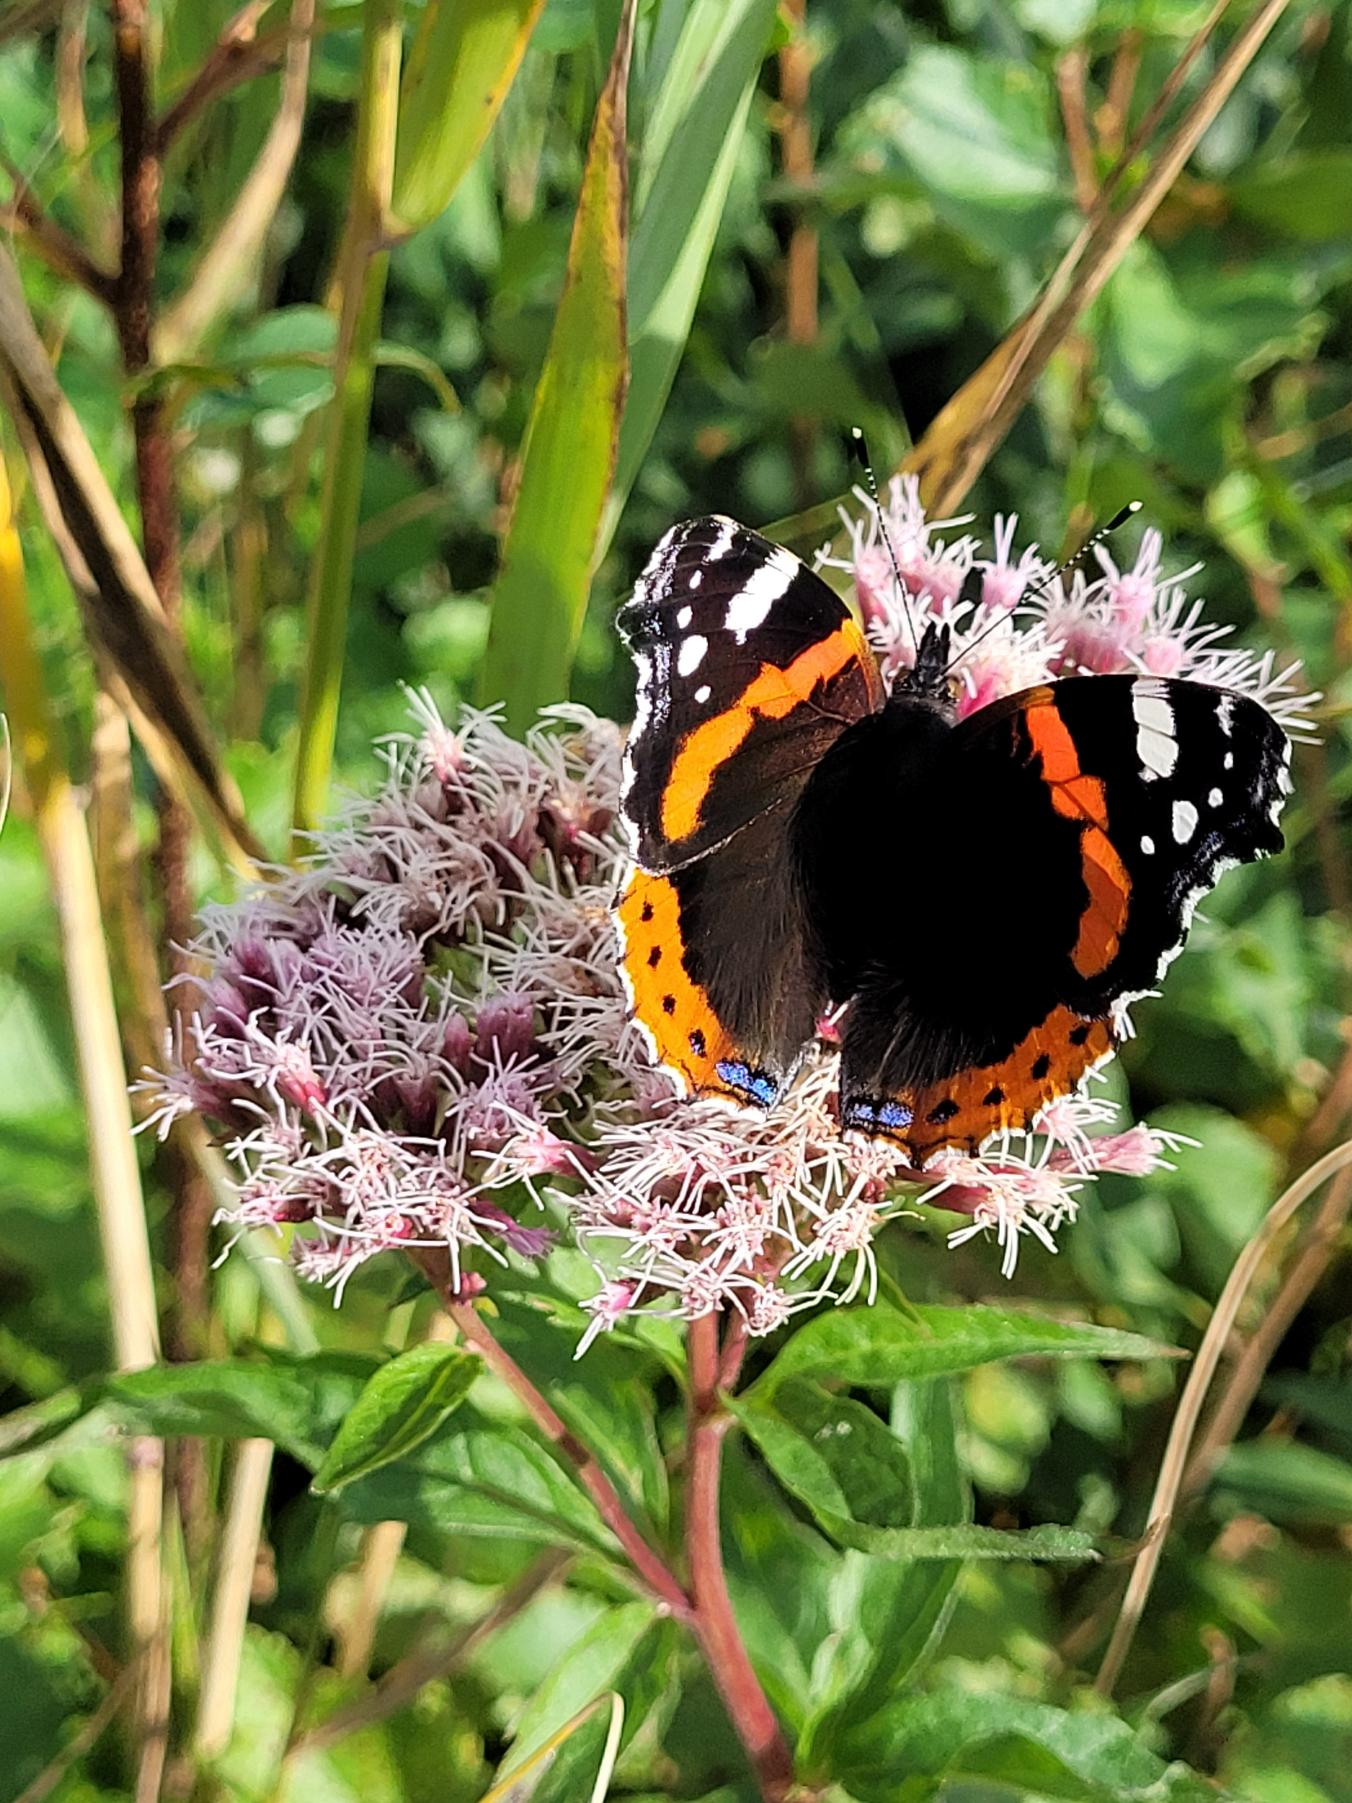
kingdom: Animalia
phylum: Arthropoda
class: Insecta
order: Lepidoptera
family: Nymphalidae
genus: Vanessa
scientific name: Vanessa atalanta
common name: Admiral
